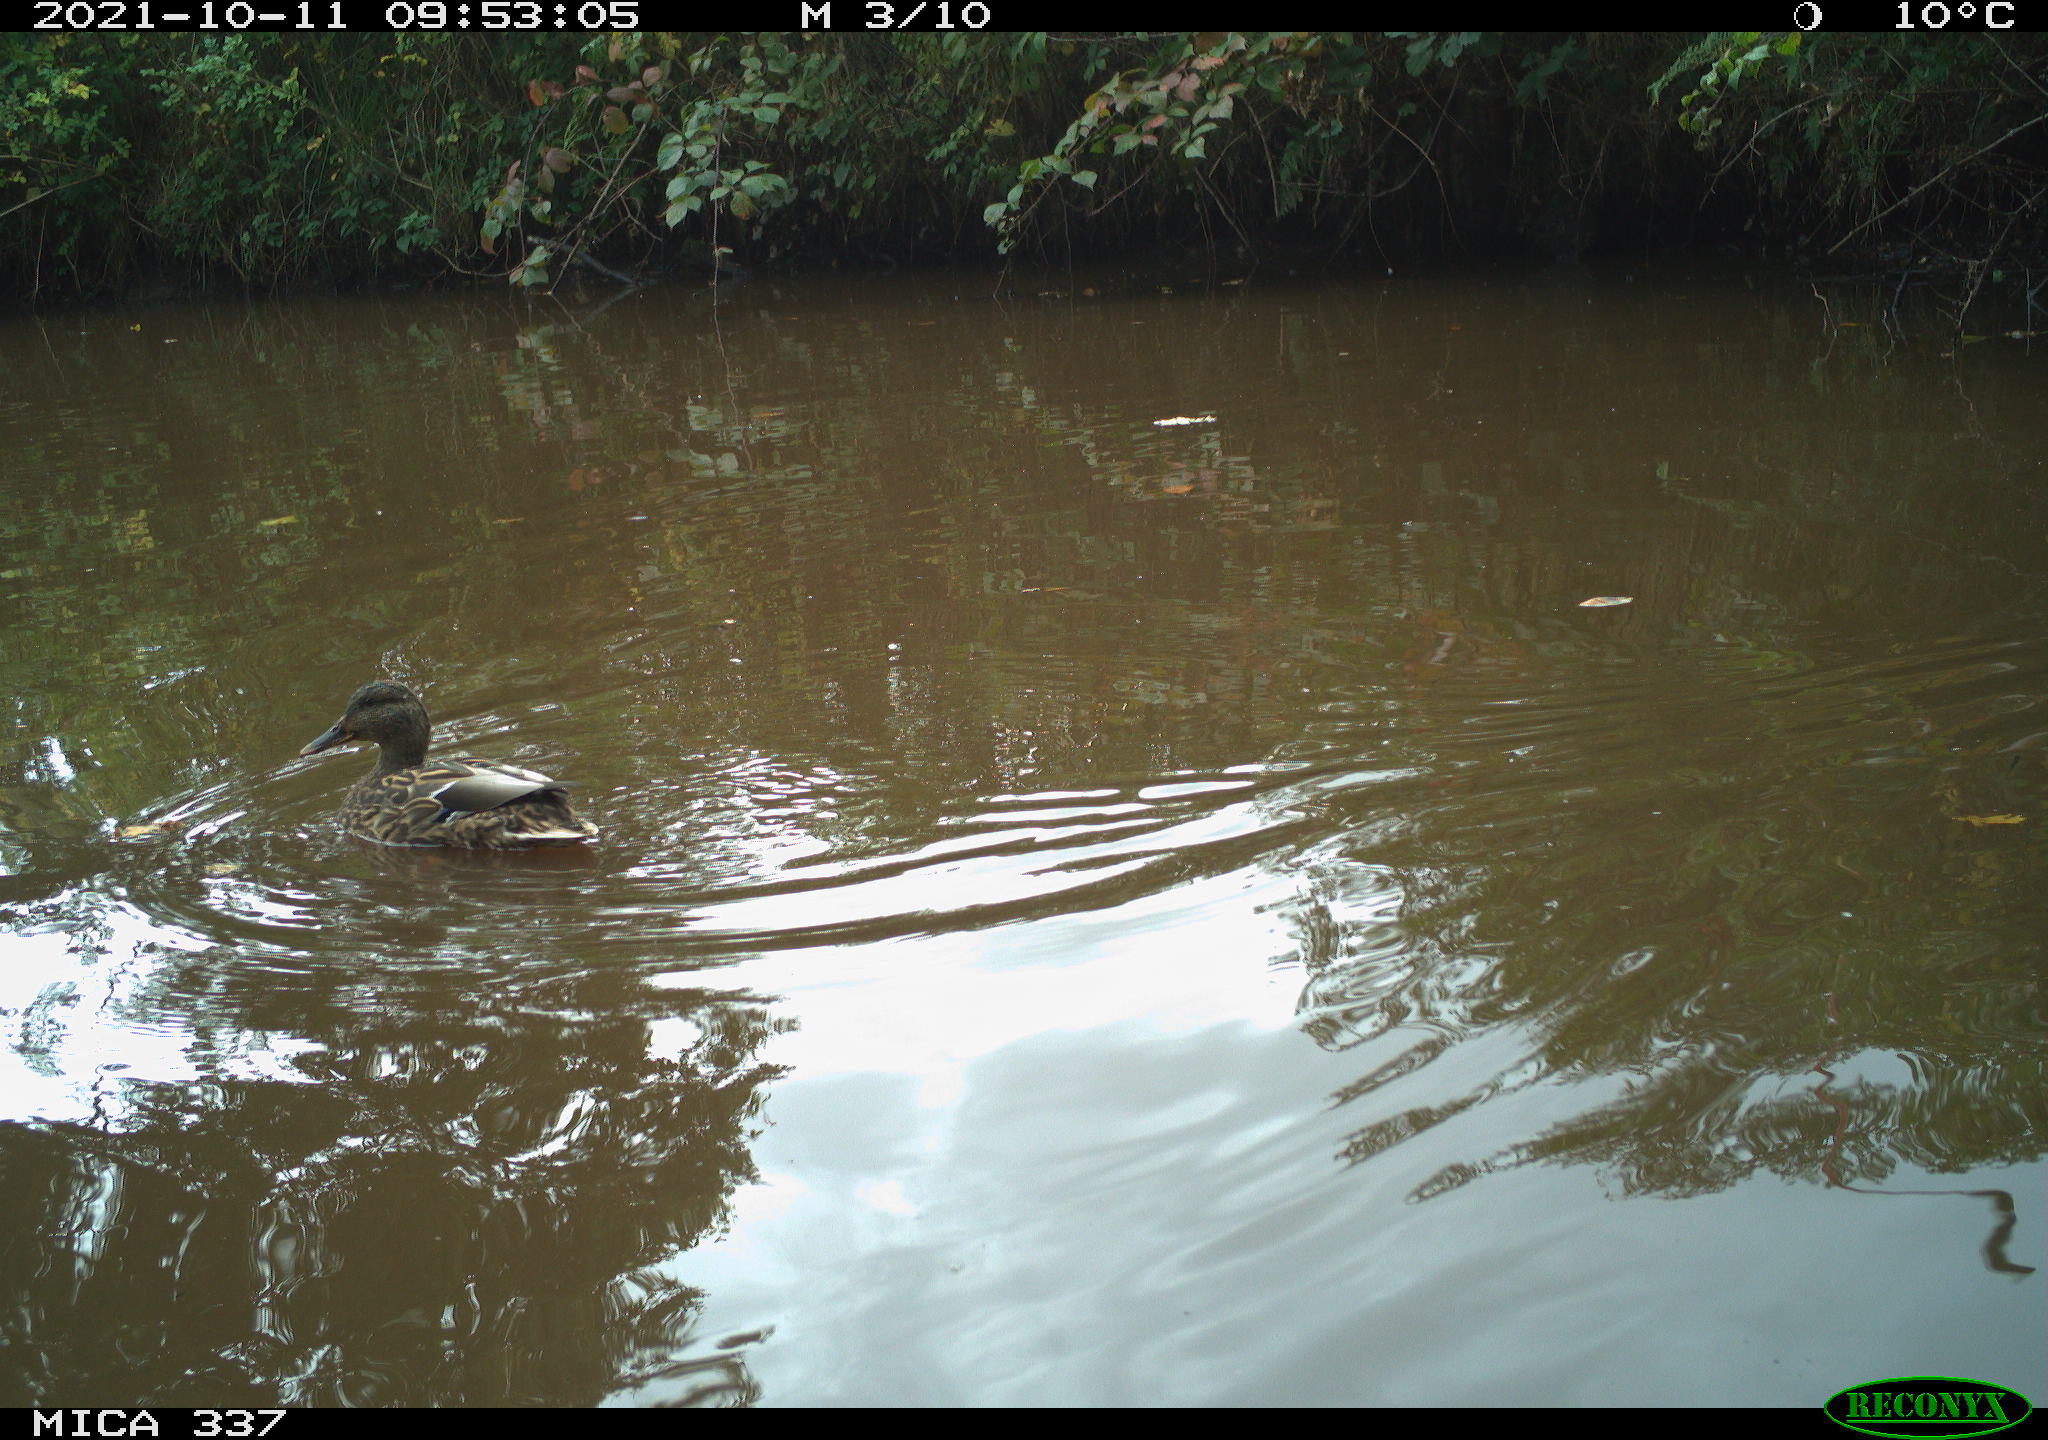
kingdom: Animalia
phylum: Chordata
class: Aves
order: Anseriformes
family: Anatidae
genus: Anas
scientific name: Anas platyrhynchos
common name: Mallard
